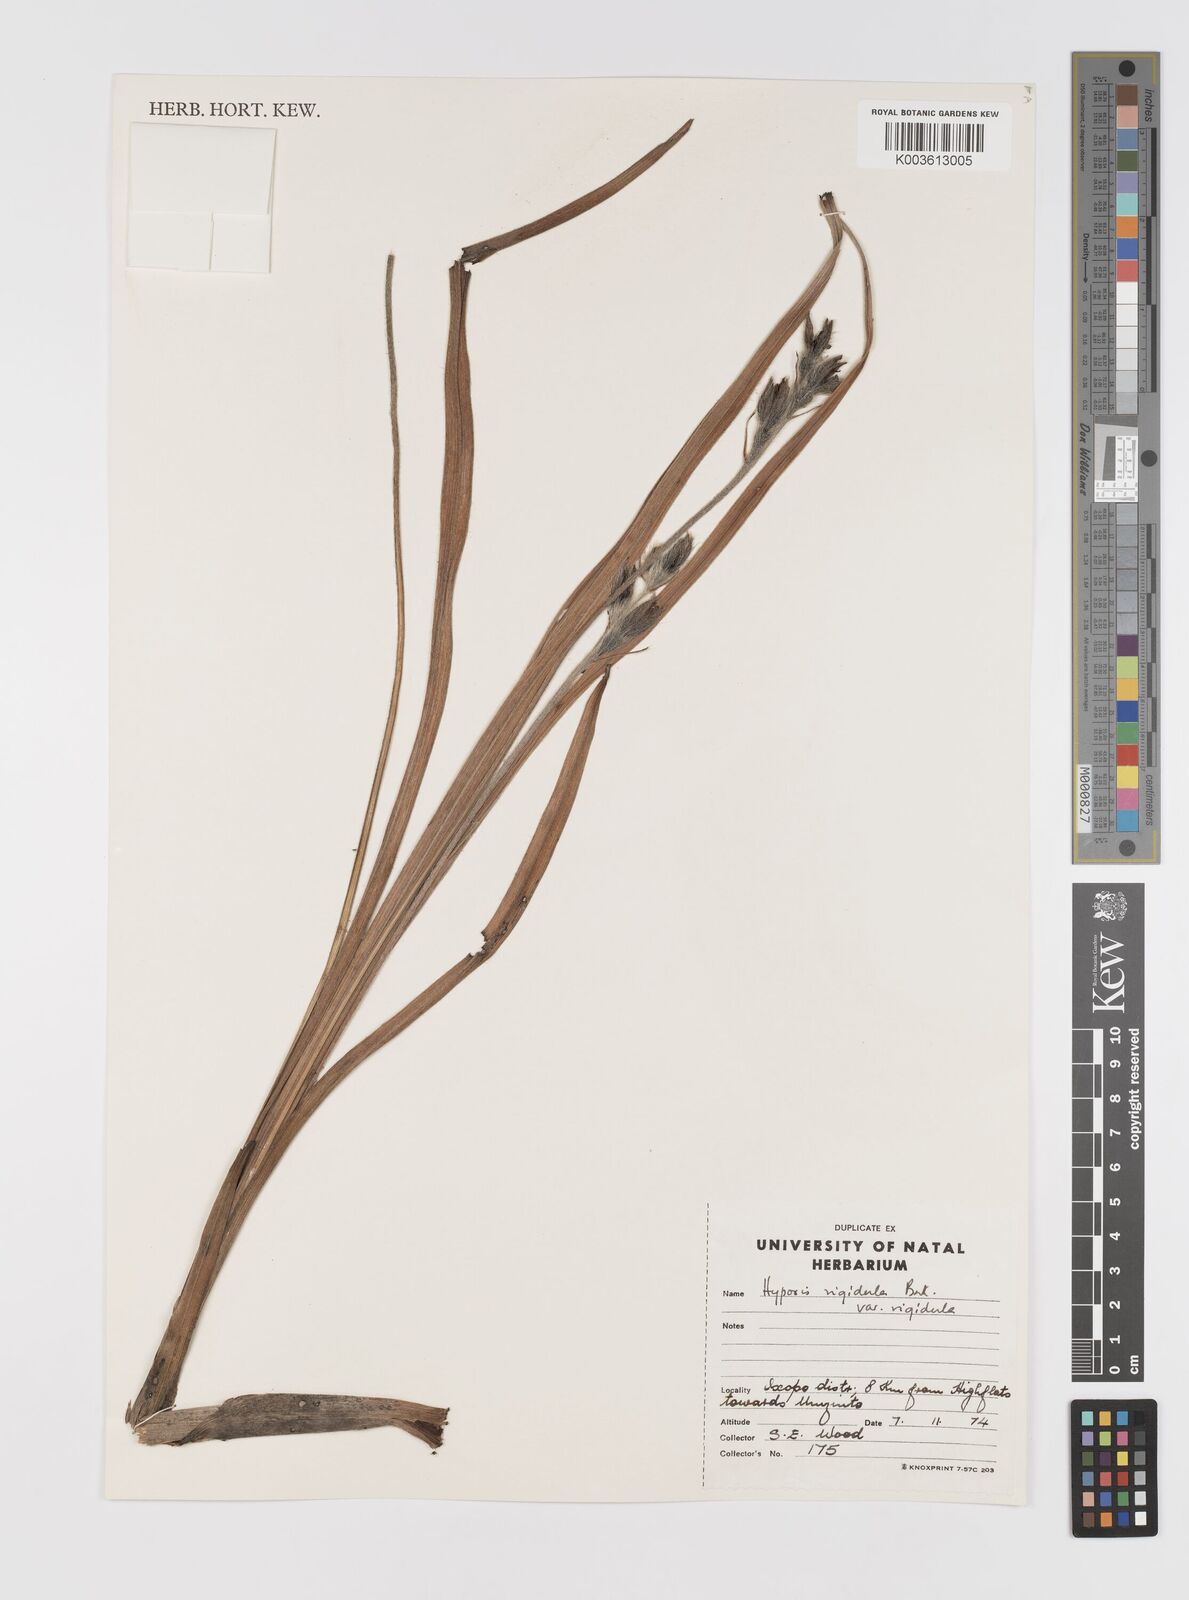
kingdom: Plantae
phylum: Tracheophyta
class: Liliopsida
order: Asparagales
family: Hypoxidaceae
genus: Hypoxis
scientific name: Hypoxis rigidula
